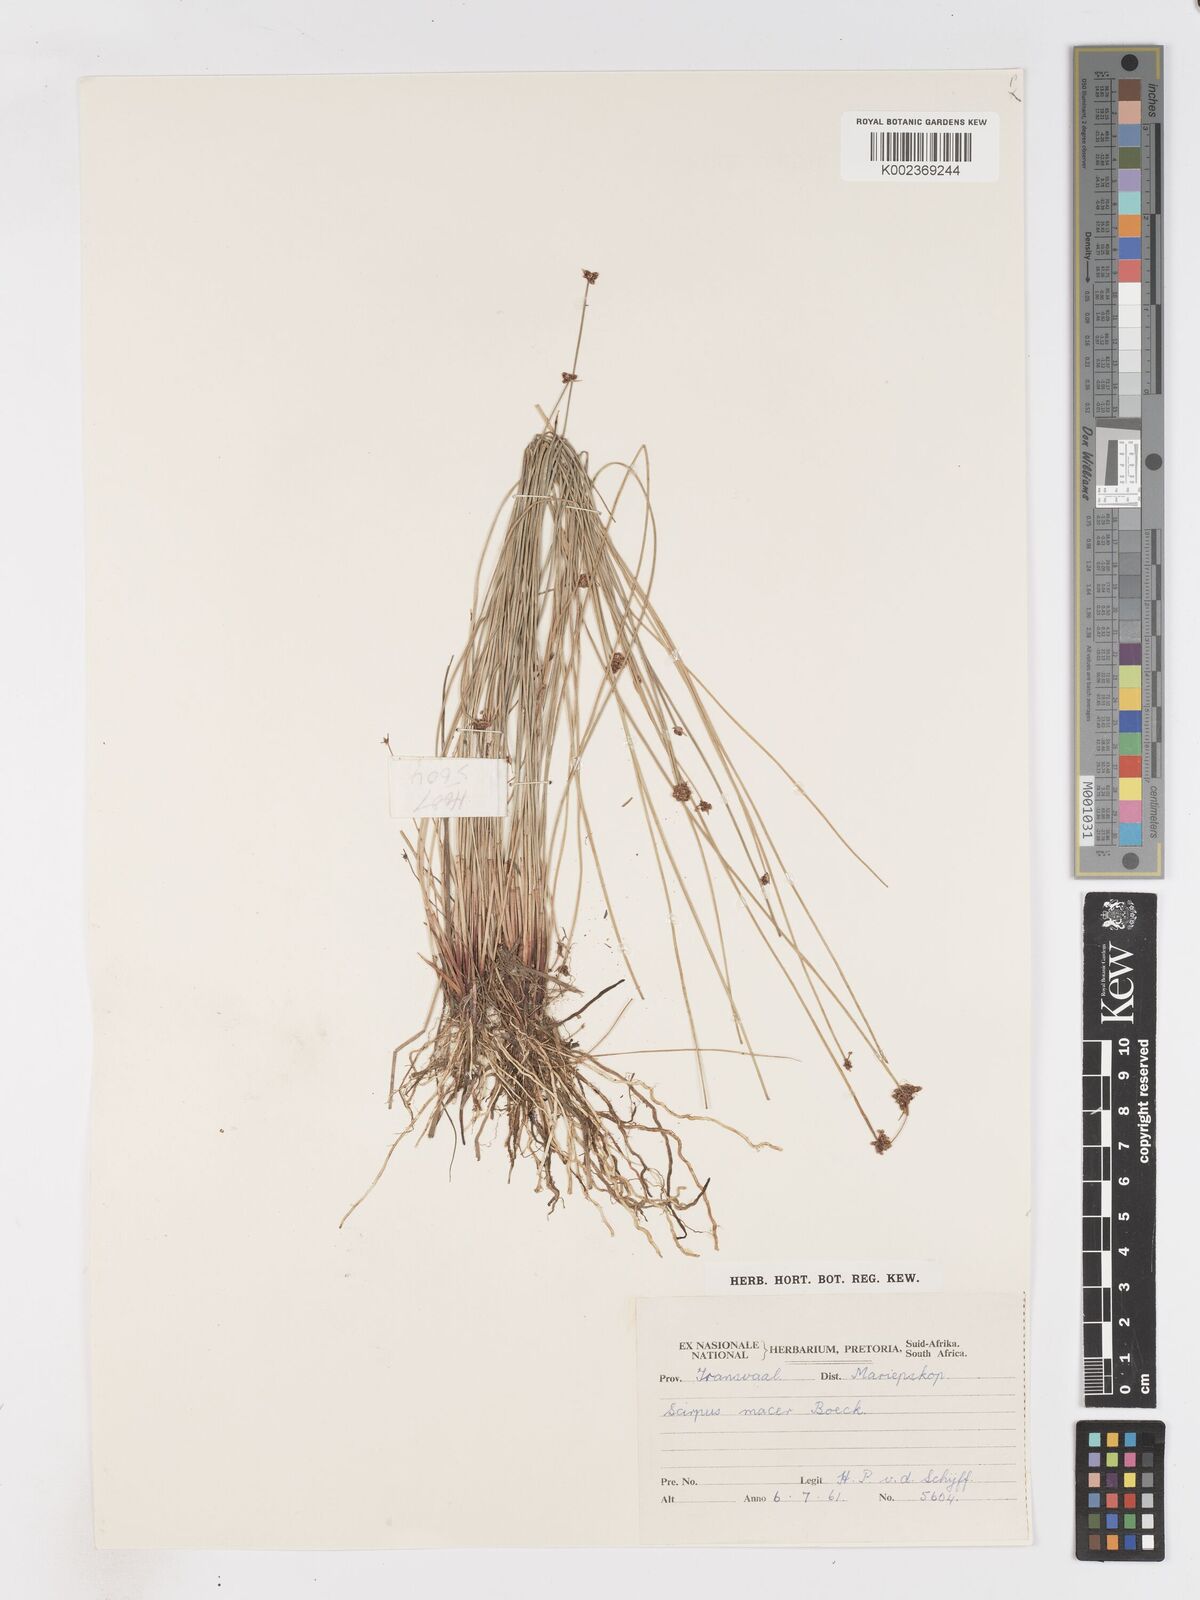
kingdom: Plantae
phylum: Tracheophyta
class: Liliopsida
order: Poales
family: Cyperaceae
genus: Isolepis
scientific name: Isolepis costata
